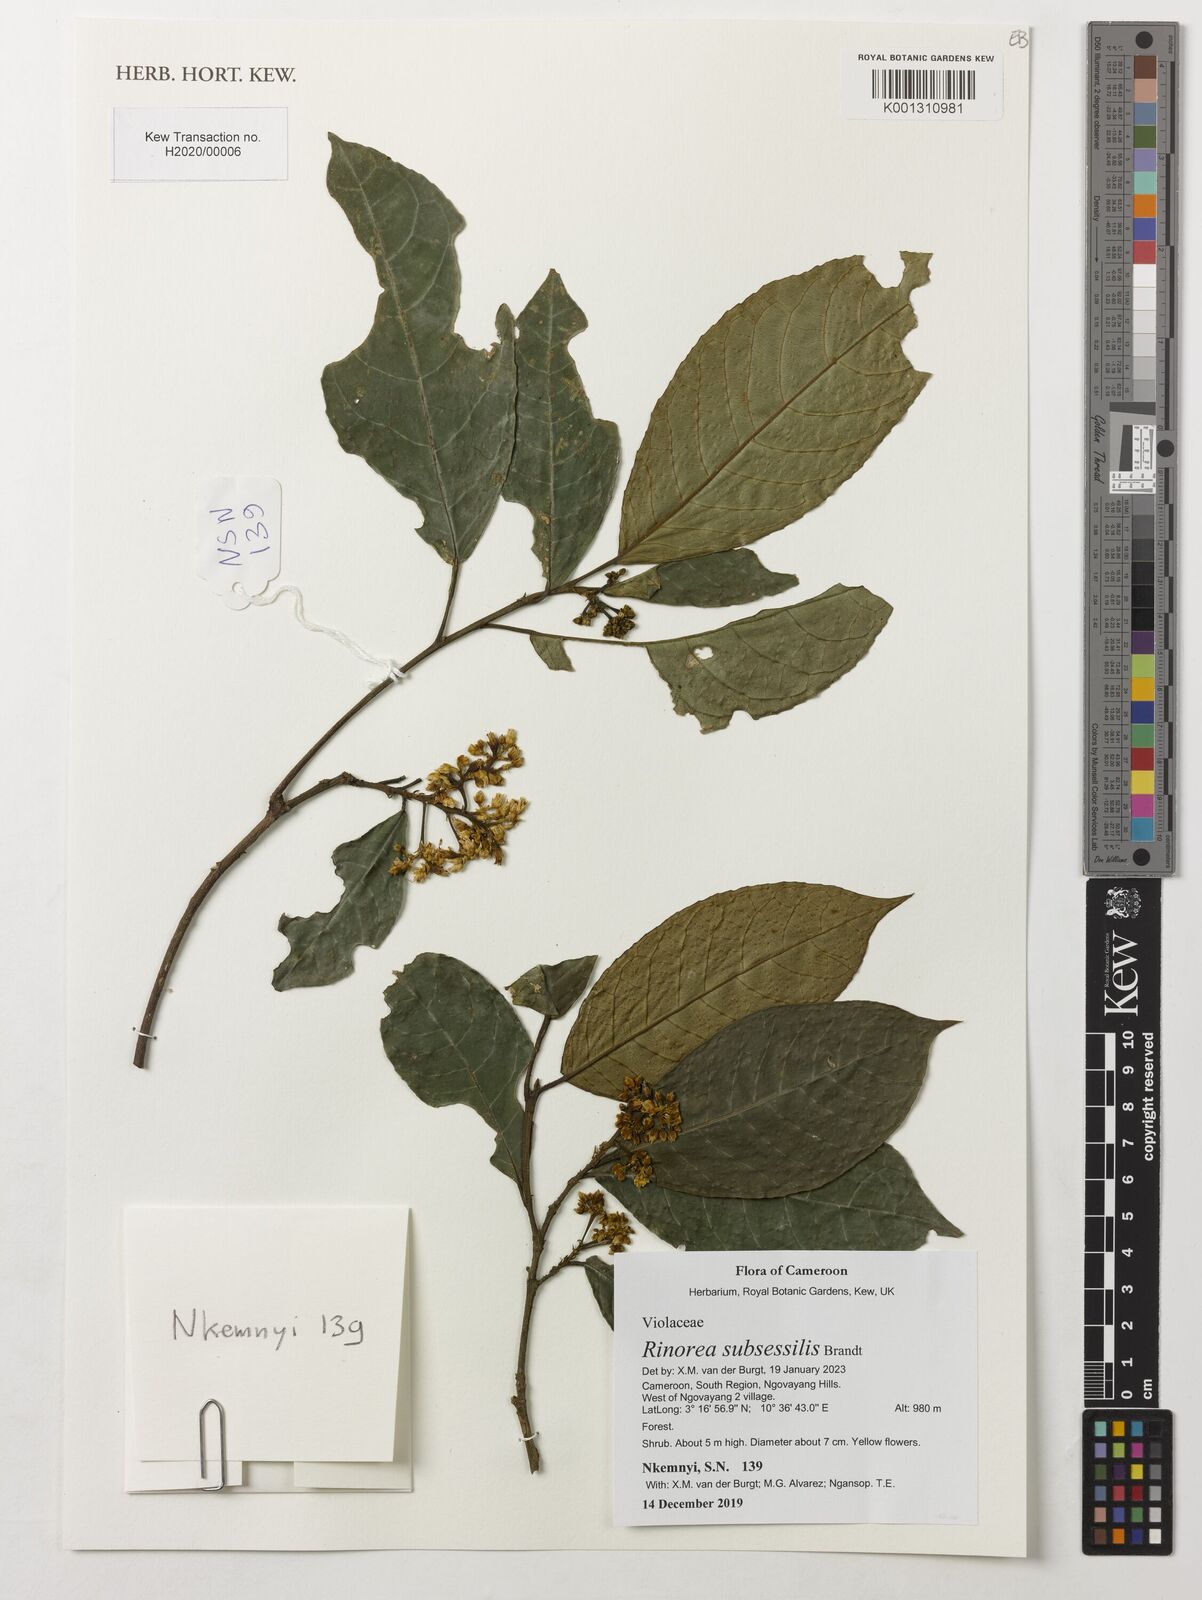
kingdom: Plantae
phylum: Tracheophyta
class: Magnoliopsida
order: Malpighiales
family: Violaceae
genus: Rinorea
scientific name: Rinorea subsessilis
